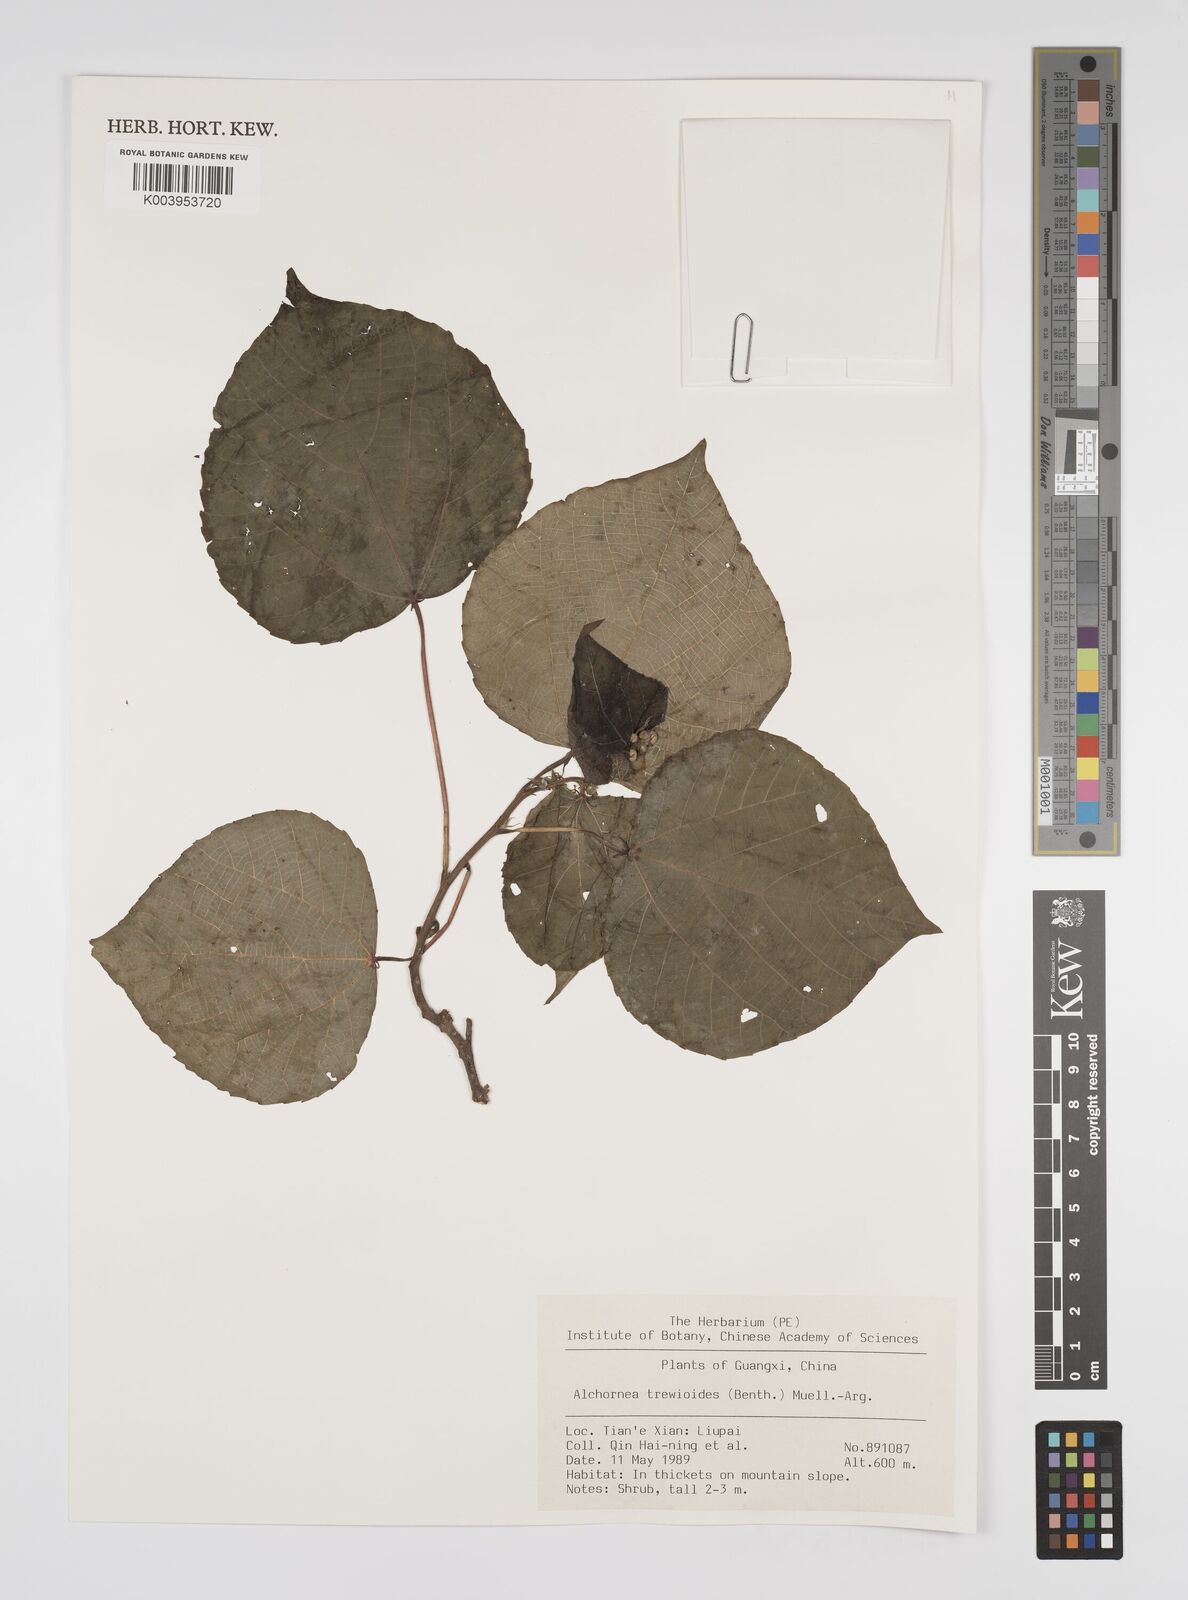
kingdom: Plantae
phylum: Tracheophyta
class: Magnoliopsida
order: Malpighiales
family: Euphorbiaceae
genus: Alchornea
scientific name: Alchornea trewioides
